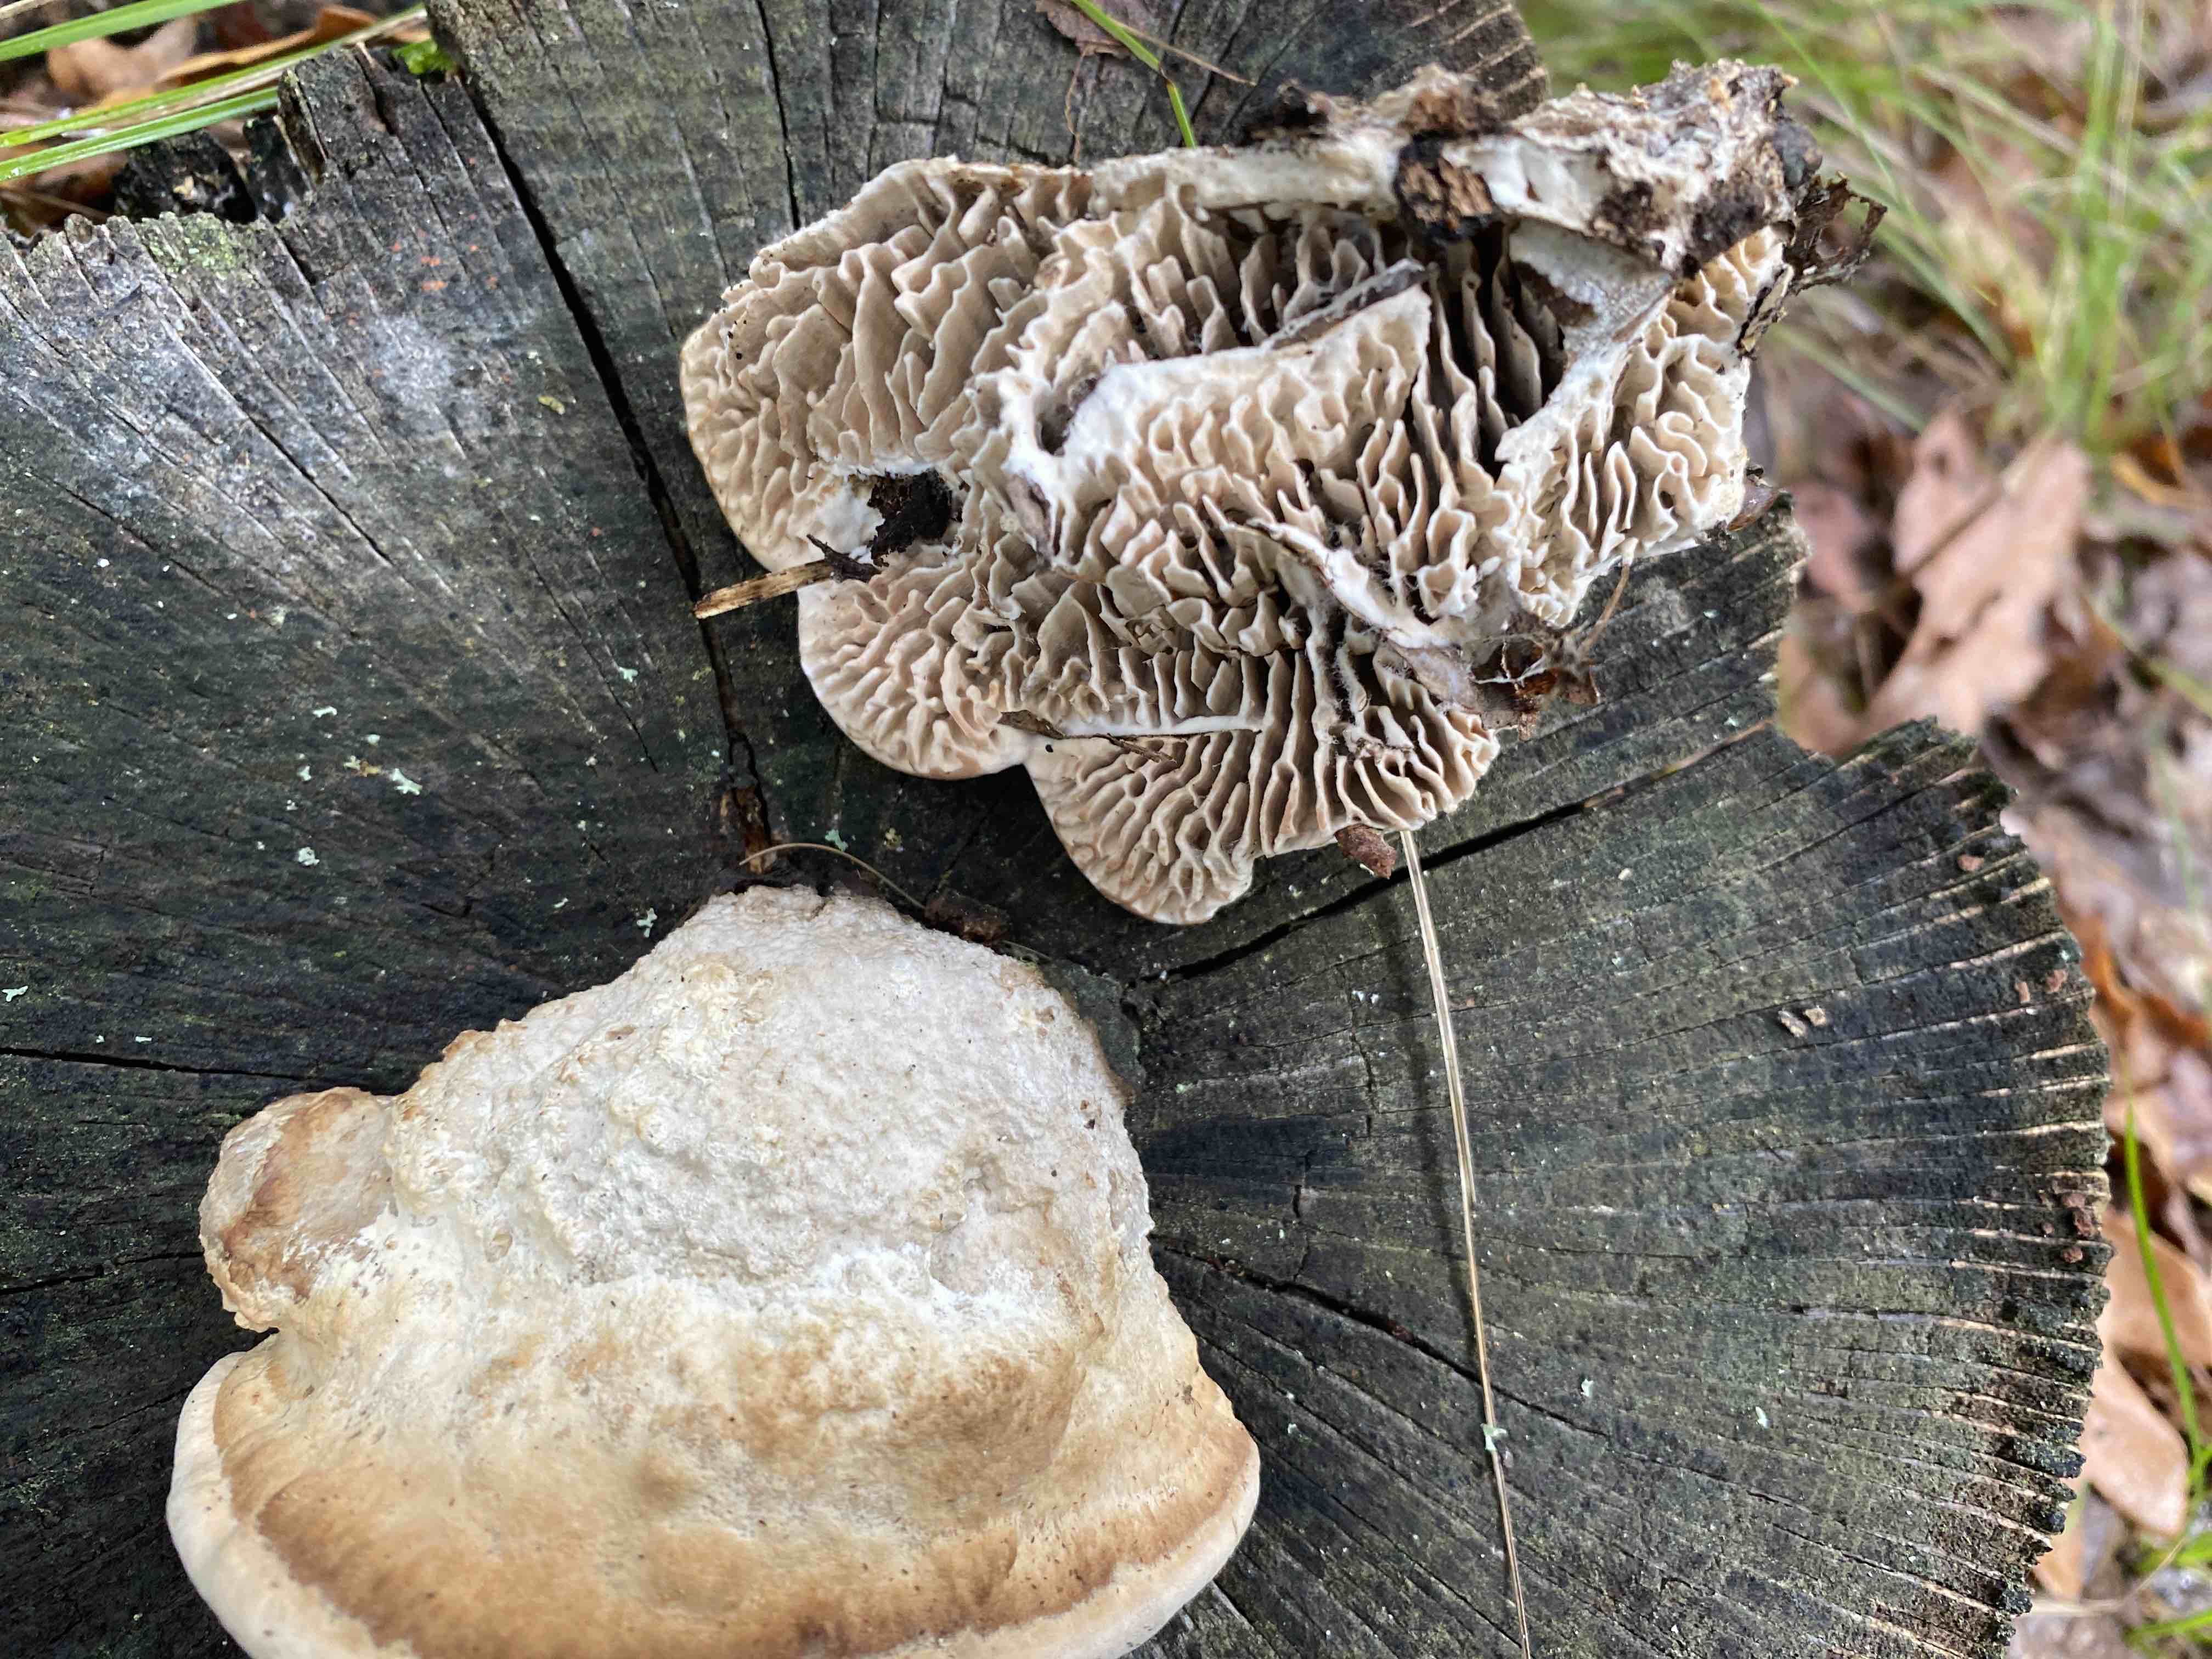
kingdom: Fungi
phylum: Basidiomycota
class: Agaricomycetes
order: Polyporales
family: Fomitopsidaceae
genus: Daedalea
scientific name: Daedalea quercina
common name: ege-labyrintsvamp
